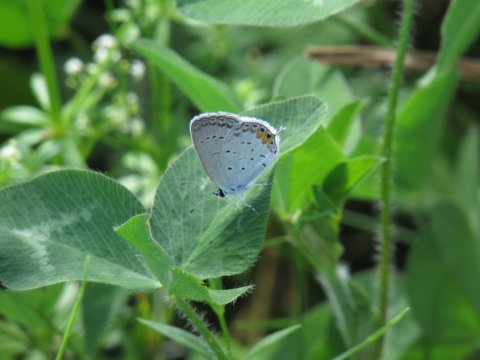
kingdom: Animalia
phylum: Arthropoda
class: Insecta
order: Lepidoptera
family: Lycaenidae
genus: Elkalyce
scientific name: Elkalyce comyntas
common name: Eastern Tailed-Blue
